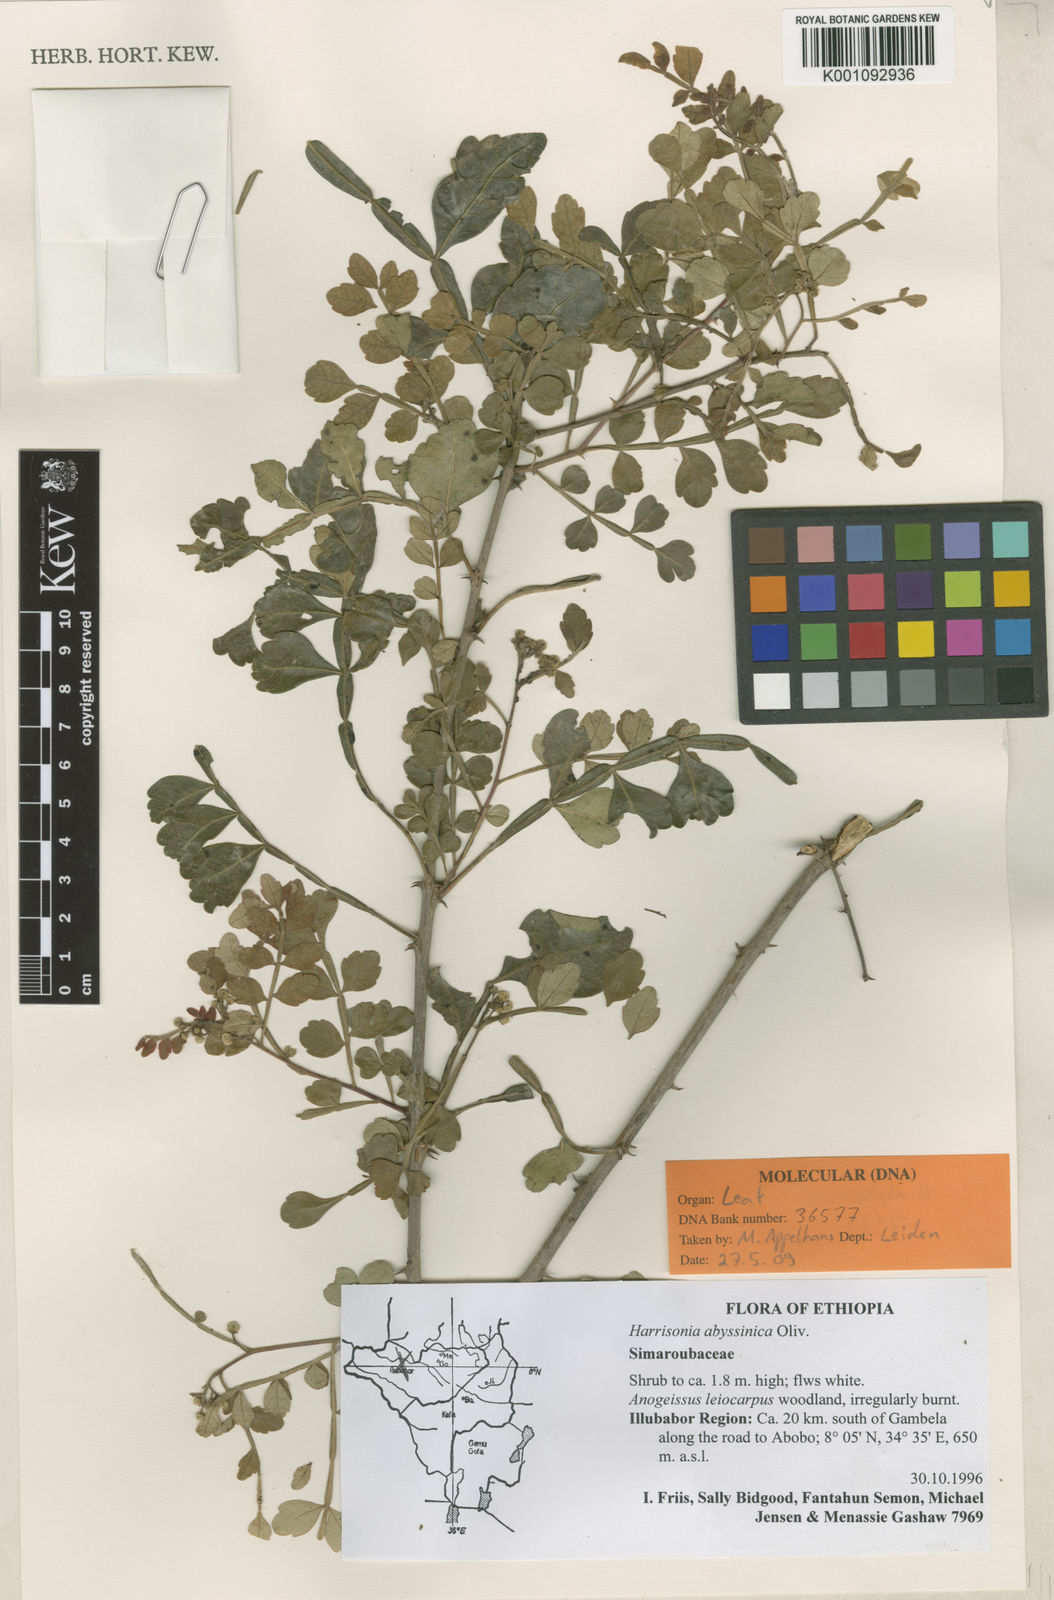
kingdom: Plantae
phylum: Tracheophyta
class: Magnoliopsida
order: Sapindales
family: Rutaceae
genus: Harrisonia
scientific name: Harrisonia abyssinica
